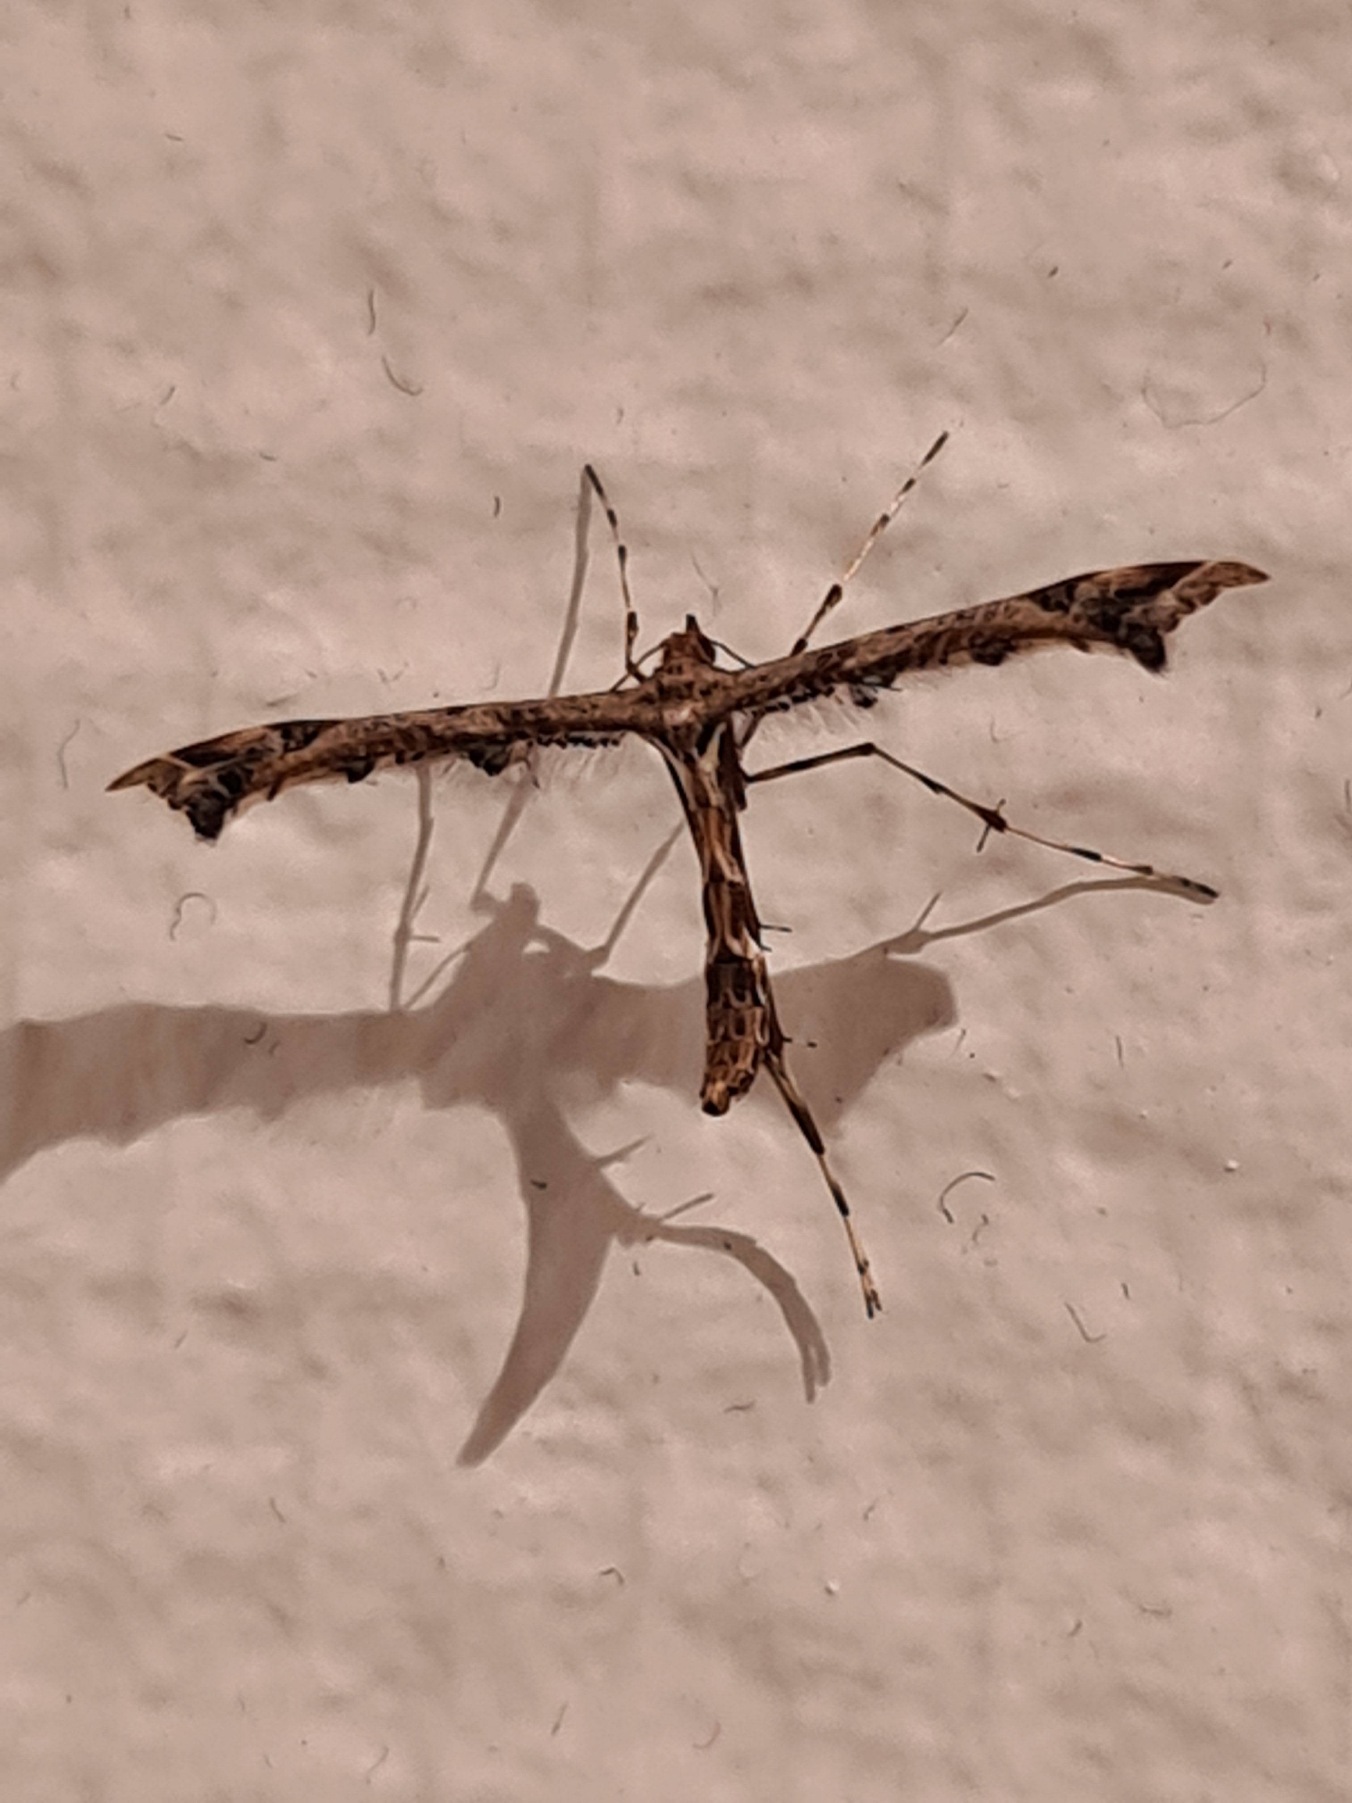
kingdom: Animalia
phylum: Arthropoda
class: Insecta
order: Lepidoptera
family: Pterophoridae
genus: Amblyptilia
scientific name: Amblyptilia acanthadactyla
